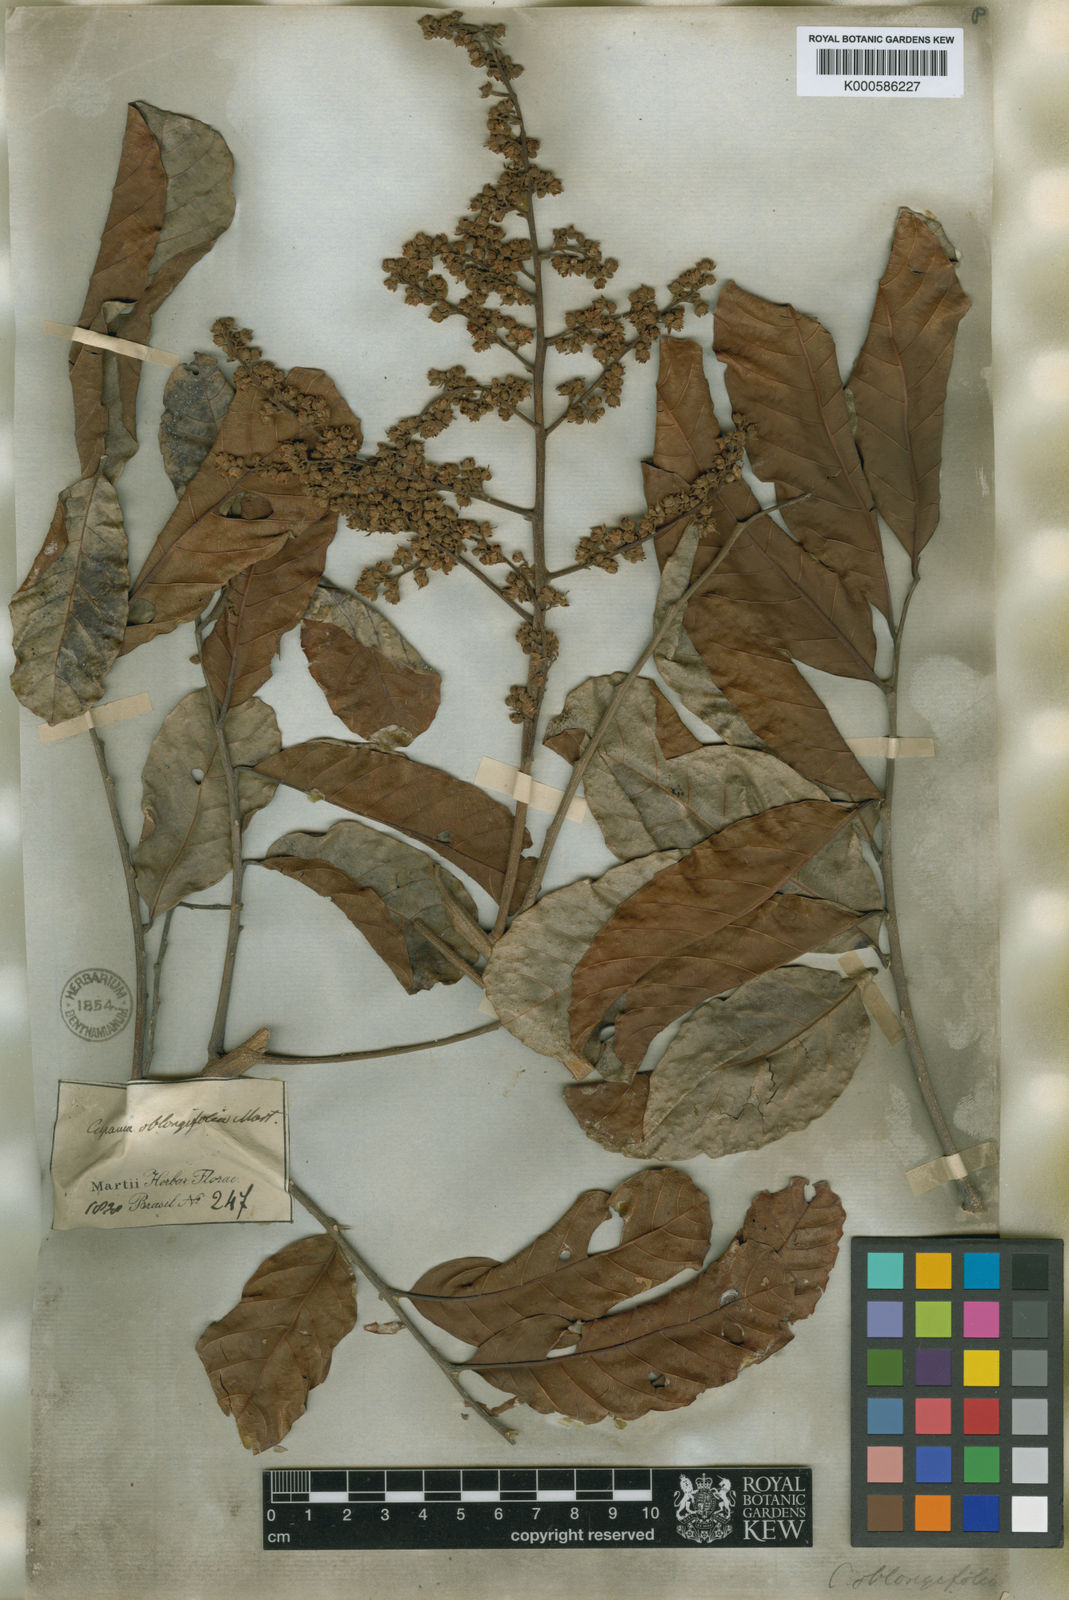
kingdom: Plantae
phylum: Tracheophyta
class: Magnoliopsida
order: Sapindales
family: Sapindaceae
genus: Cupania
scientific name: Cupania oblongifolia
